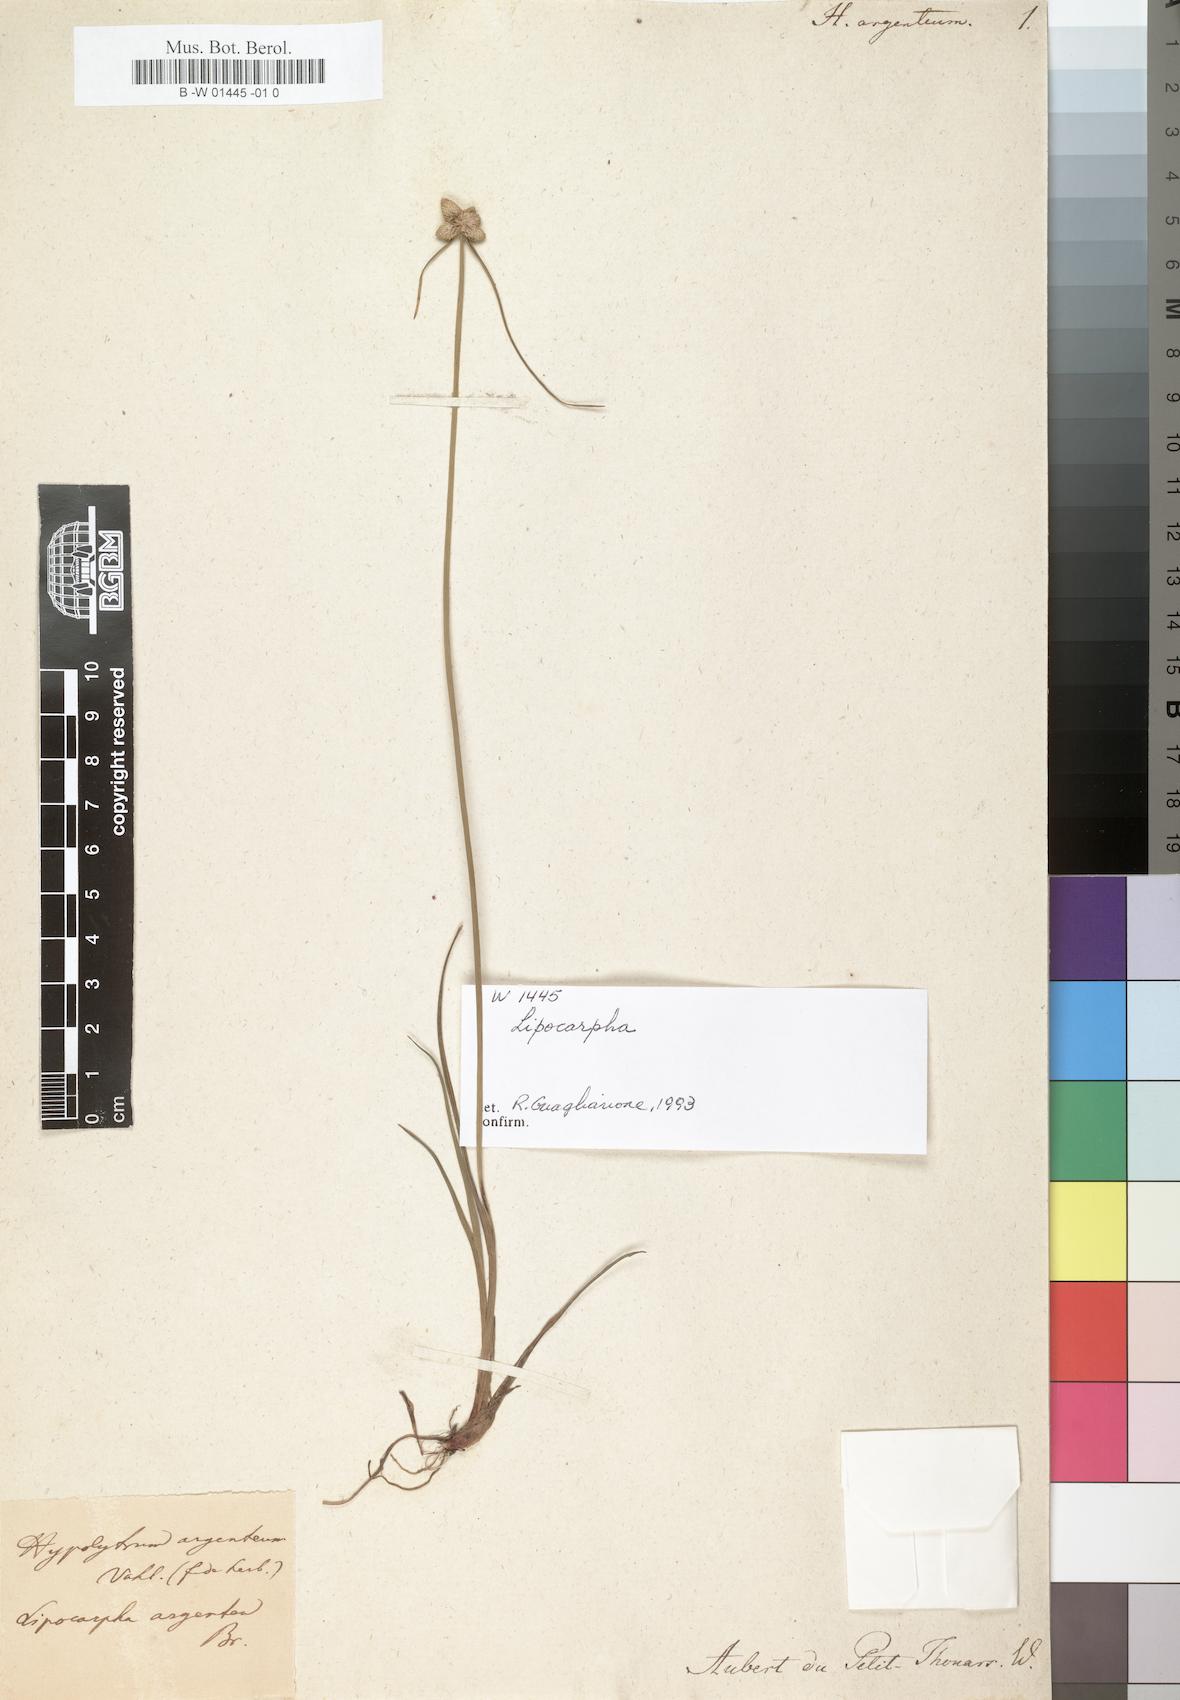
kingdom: Plantae
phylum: Tracheophyta
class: Liliopsida
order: Poales
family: Cyperaceae
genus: Cyperus
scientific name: Cyperus albescens
